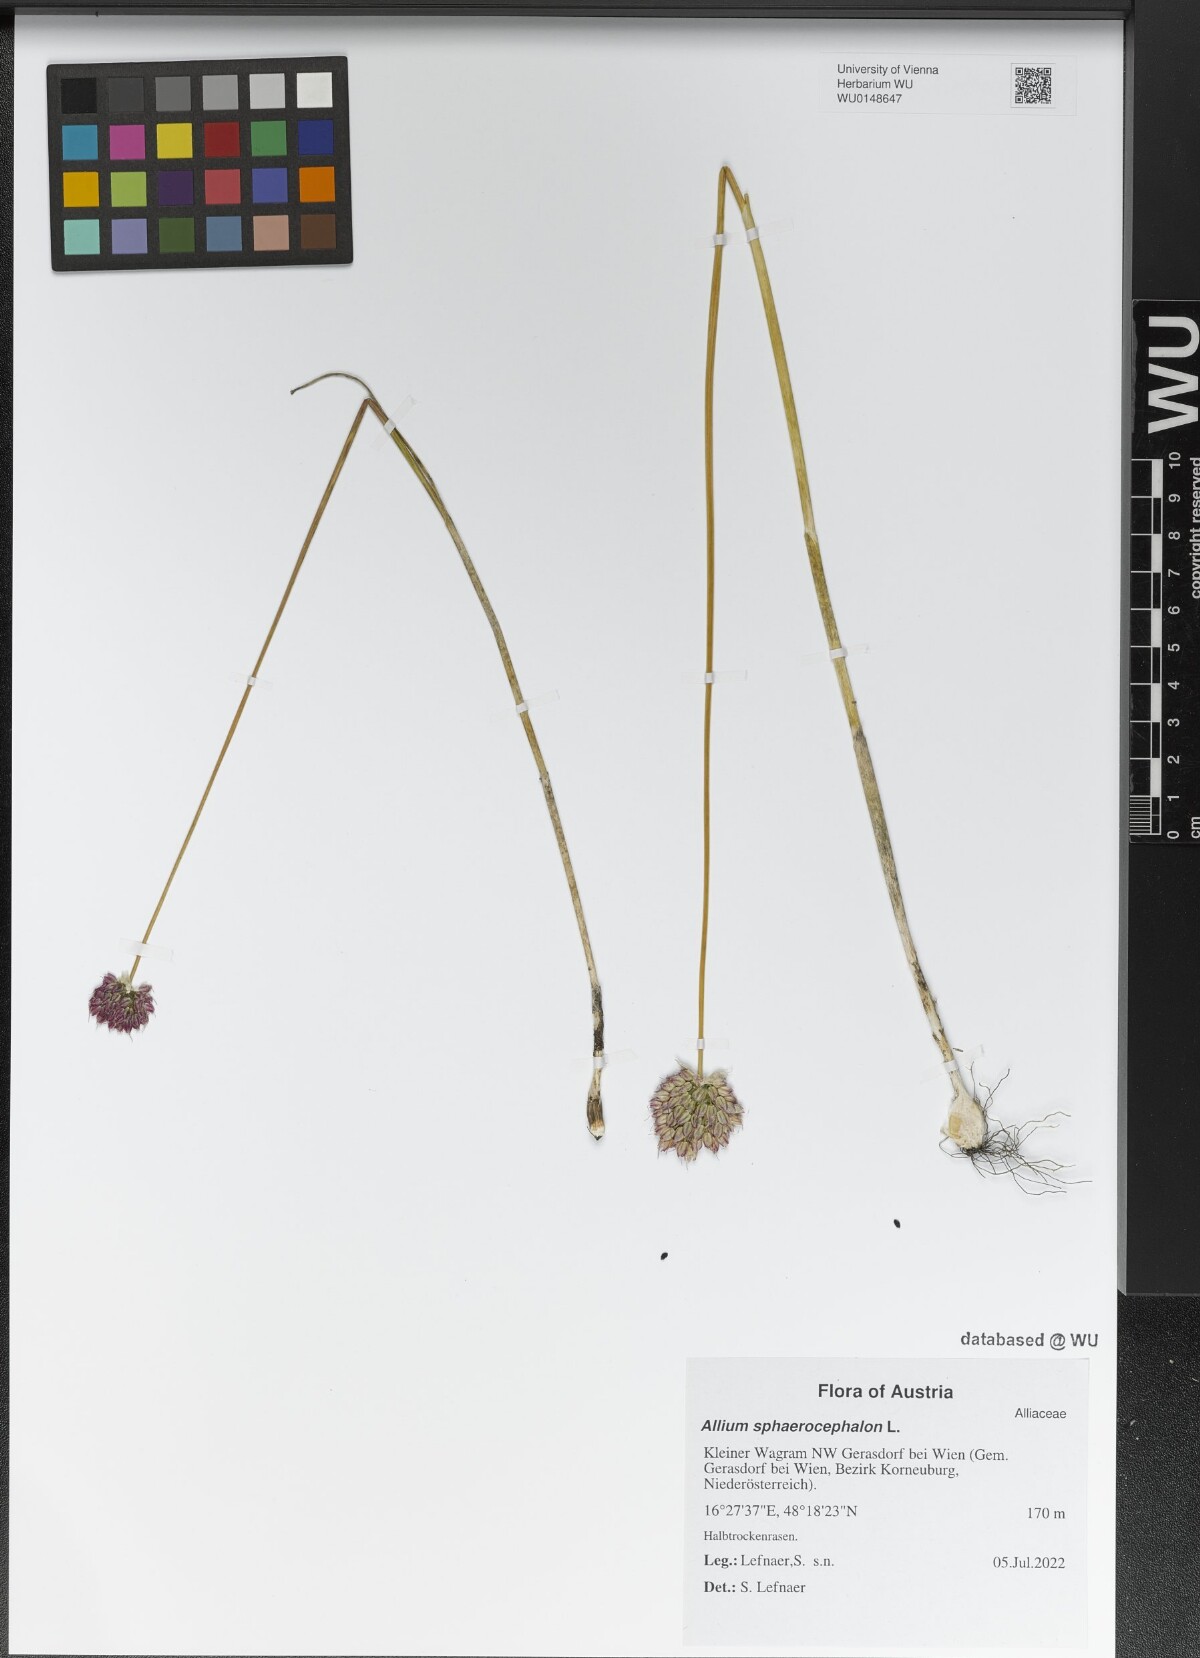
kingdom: Plantae
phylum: Tracheophyta
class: Liliopsida
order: Asparagales
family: Amaryllidaceae
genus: Allium
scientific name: Allium sphaerocephalon
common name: Round-headed leek
